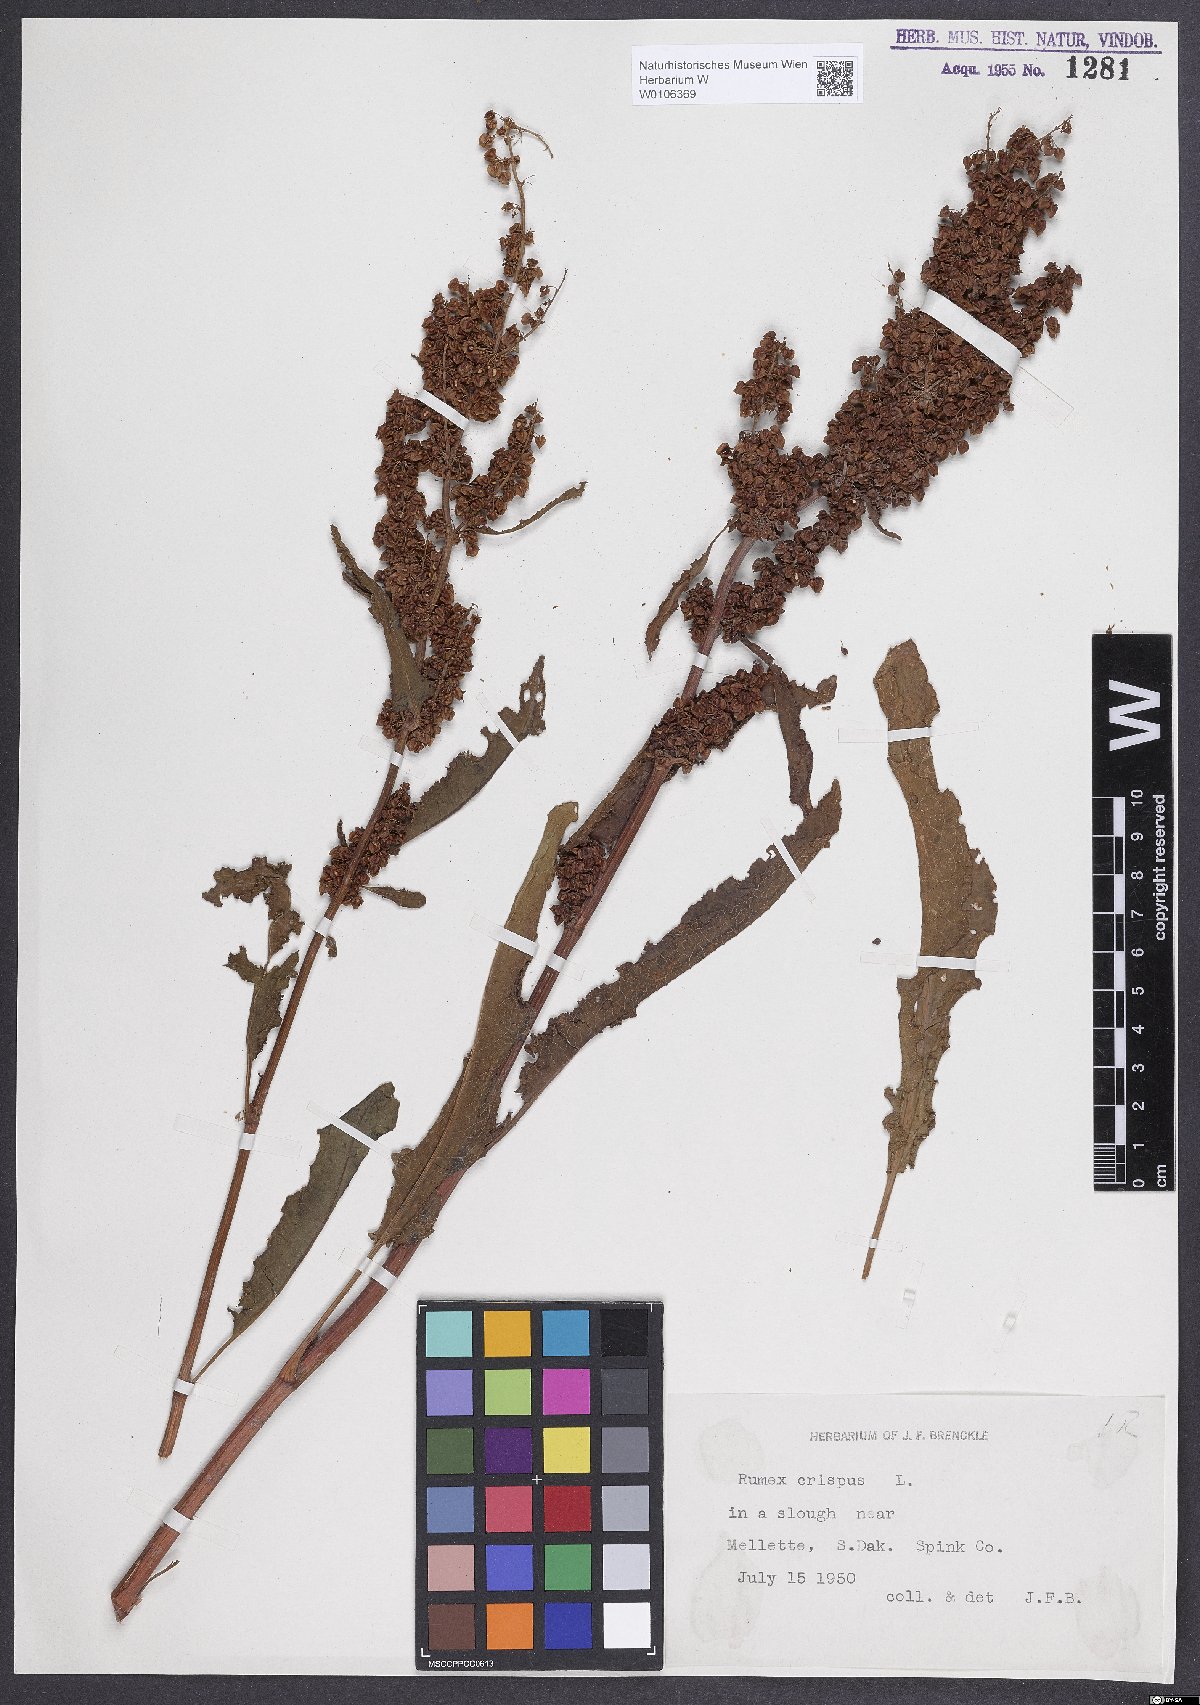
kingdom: Plantae
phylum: Tracheophyta
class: Magnoliopsida
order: Caryophyllales
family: Polygonaceae
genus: Rumex
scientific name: Rumex crispus
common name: Curled dock
